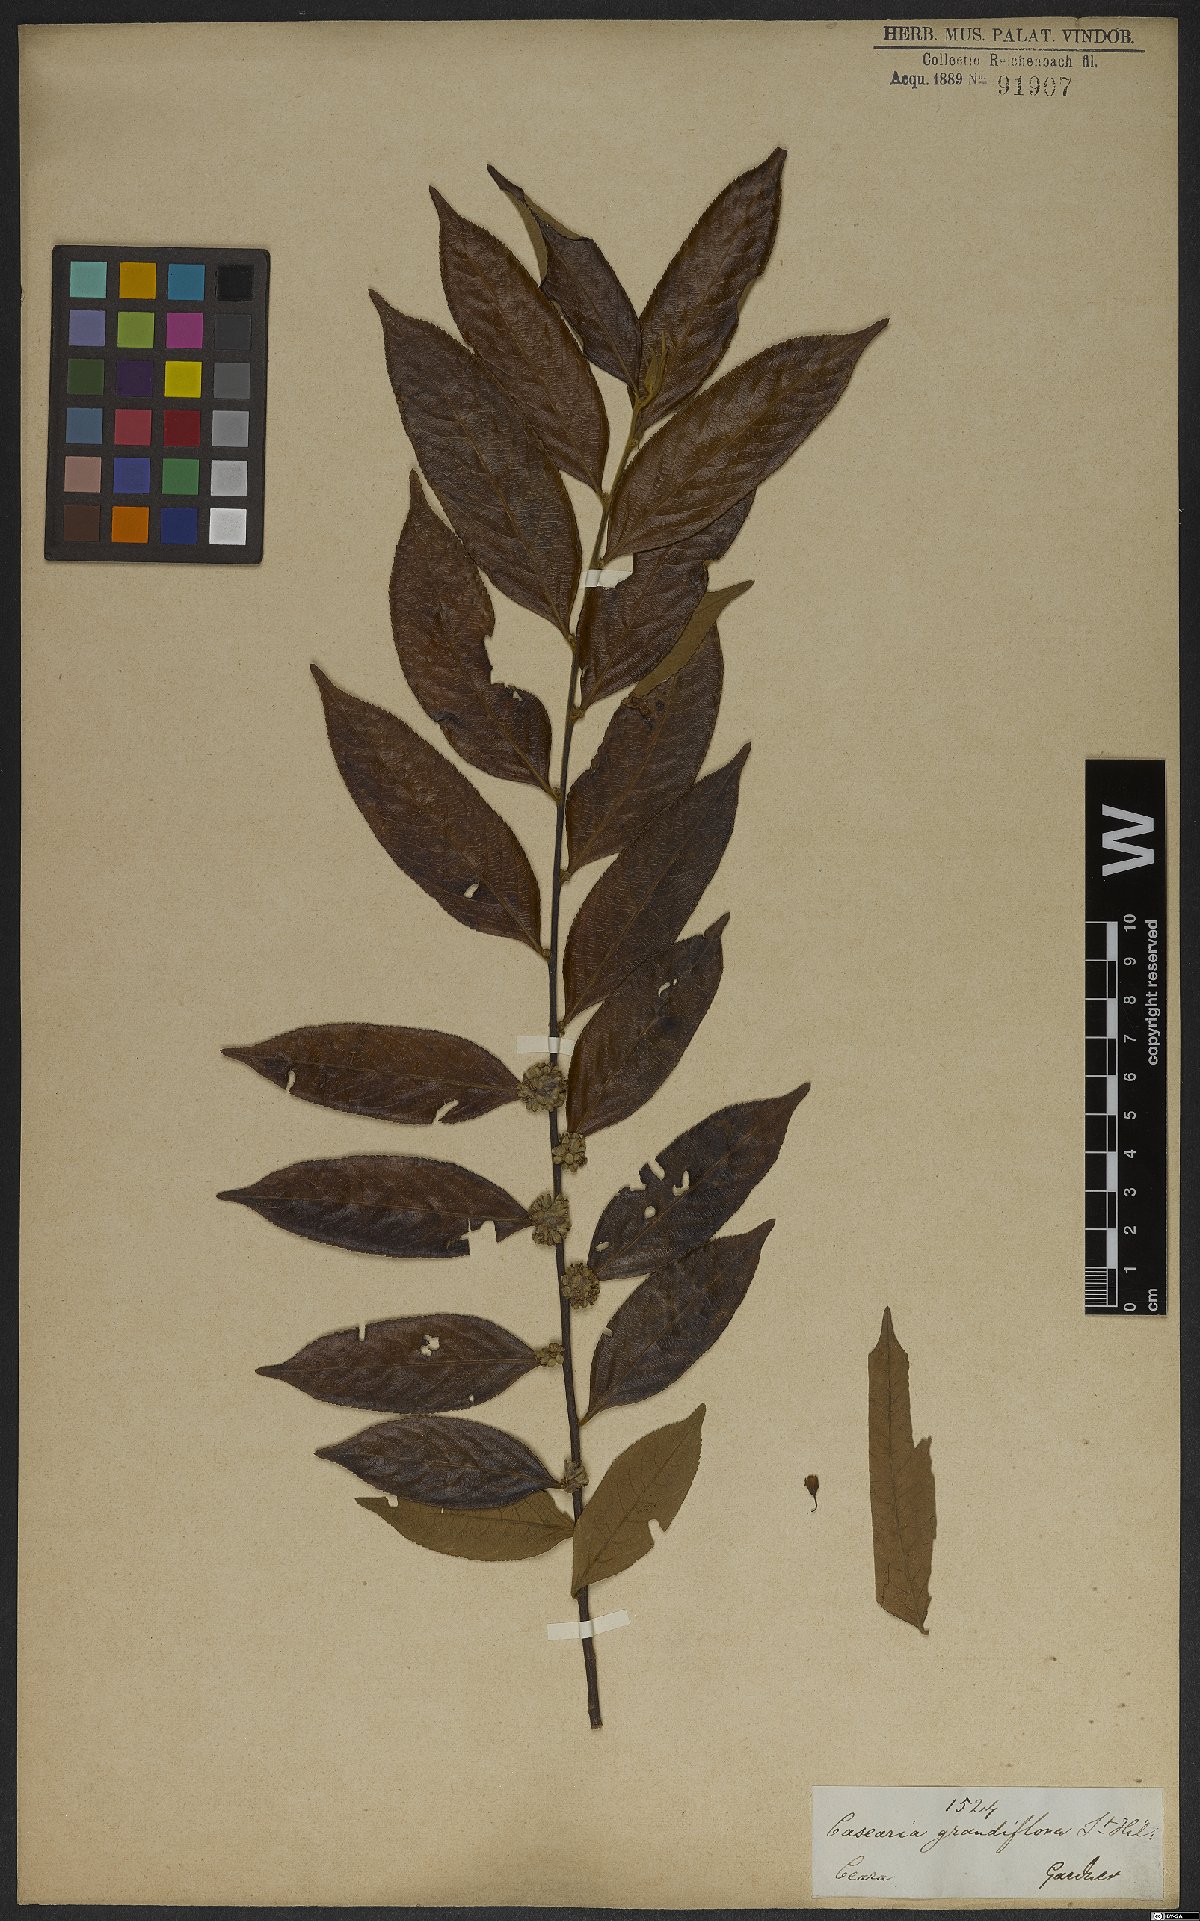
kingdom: Plantae
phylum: Tracheophyta
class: Magnoliopsida
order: Malpighiales
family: Salicaceae
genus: Casearia
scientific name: Casearia grandiflora
